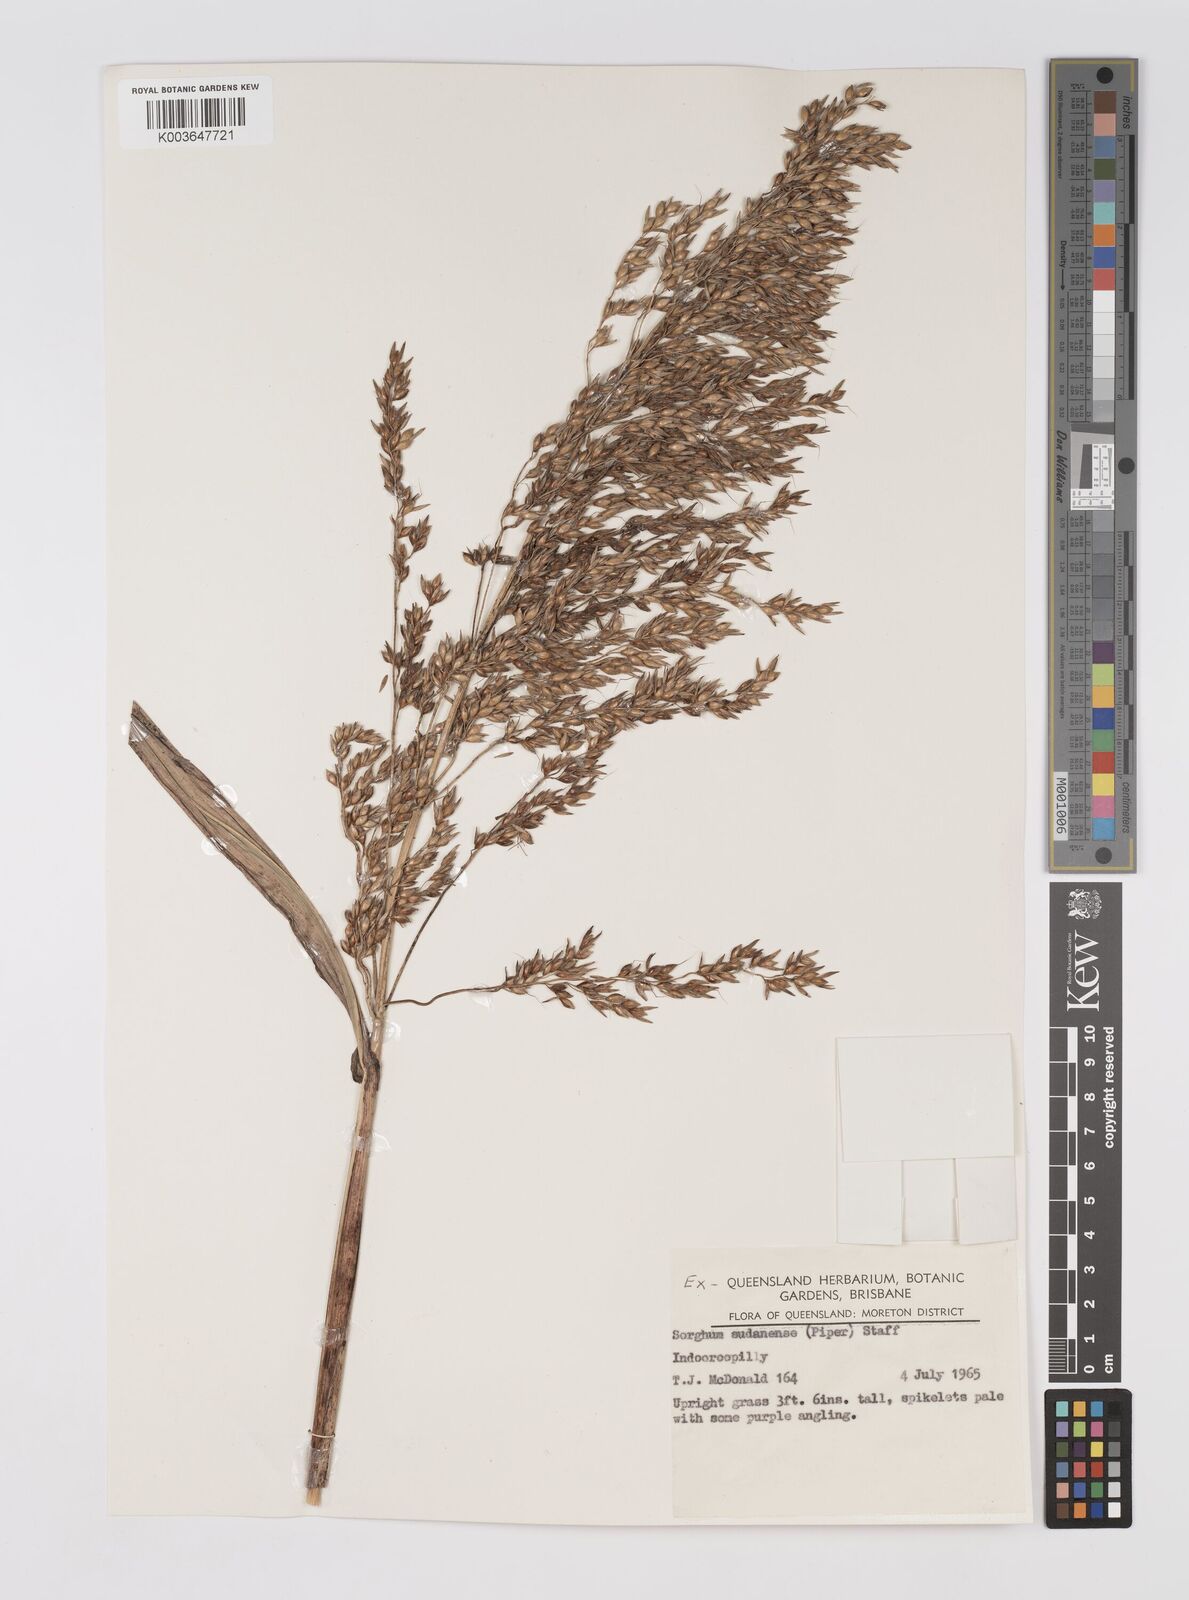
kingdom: Plantae
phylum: Tracheophyta
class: Liliopsida
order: Poales
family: Poaceae
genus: Sorghum
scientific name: Sorghum drummondii
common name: Sudangrass
